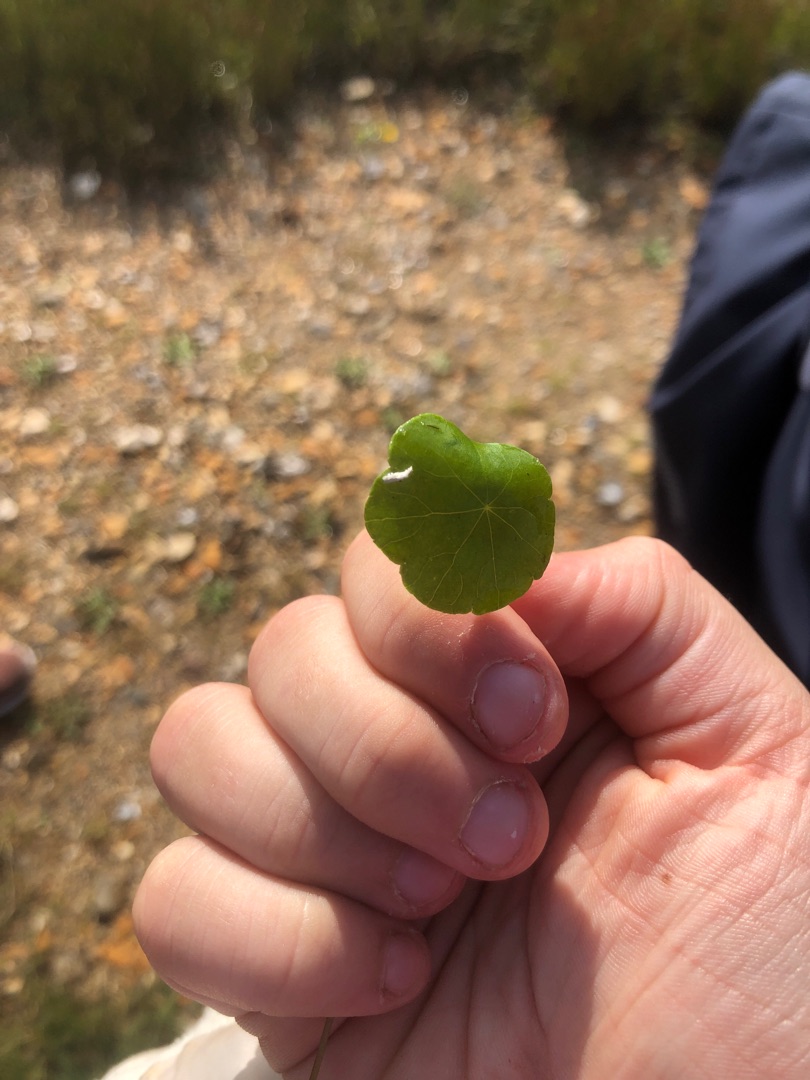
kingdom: Plantae
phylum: Tracheophyta
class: Magnoliopsida
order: Apiales
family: Araliaceae
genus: Hydrocotyle
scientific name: Hydrocotyle vulgaris
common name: Vandnavle
